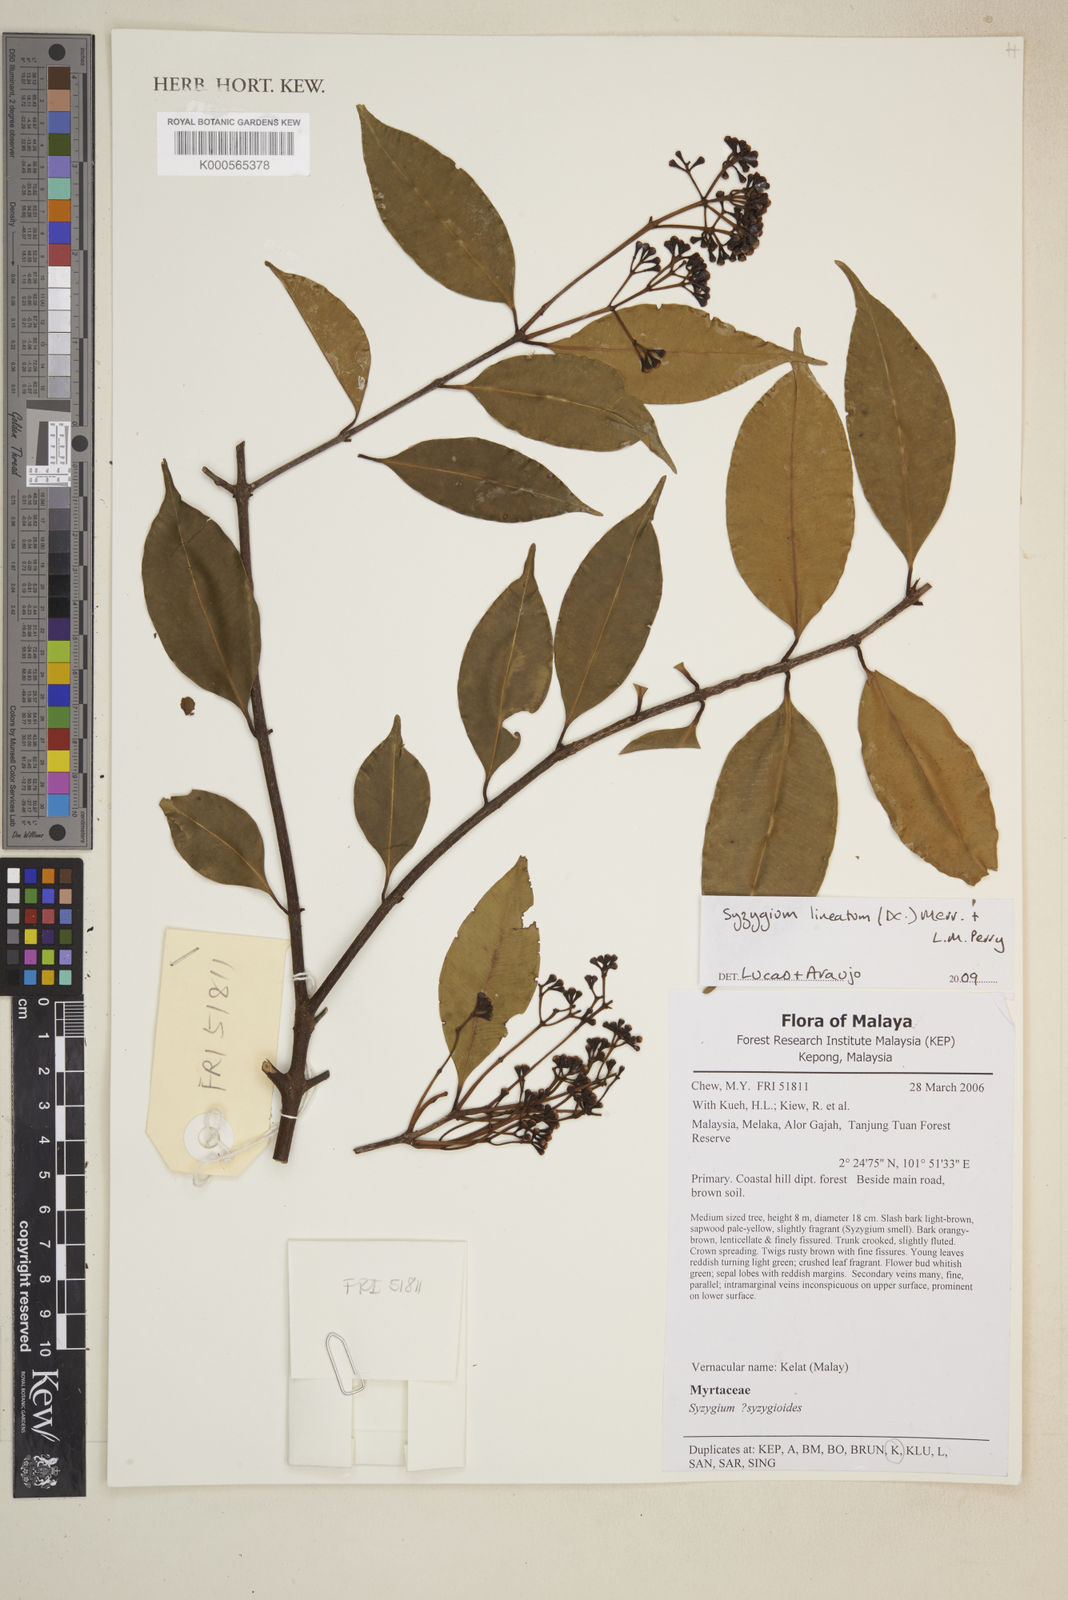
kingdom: Plantae
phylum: Tracheophyta
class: Magnoliopsida
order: Myrtales
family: Myrtaceae
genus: Syzygium
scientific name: Syzygium lineatum
